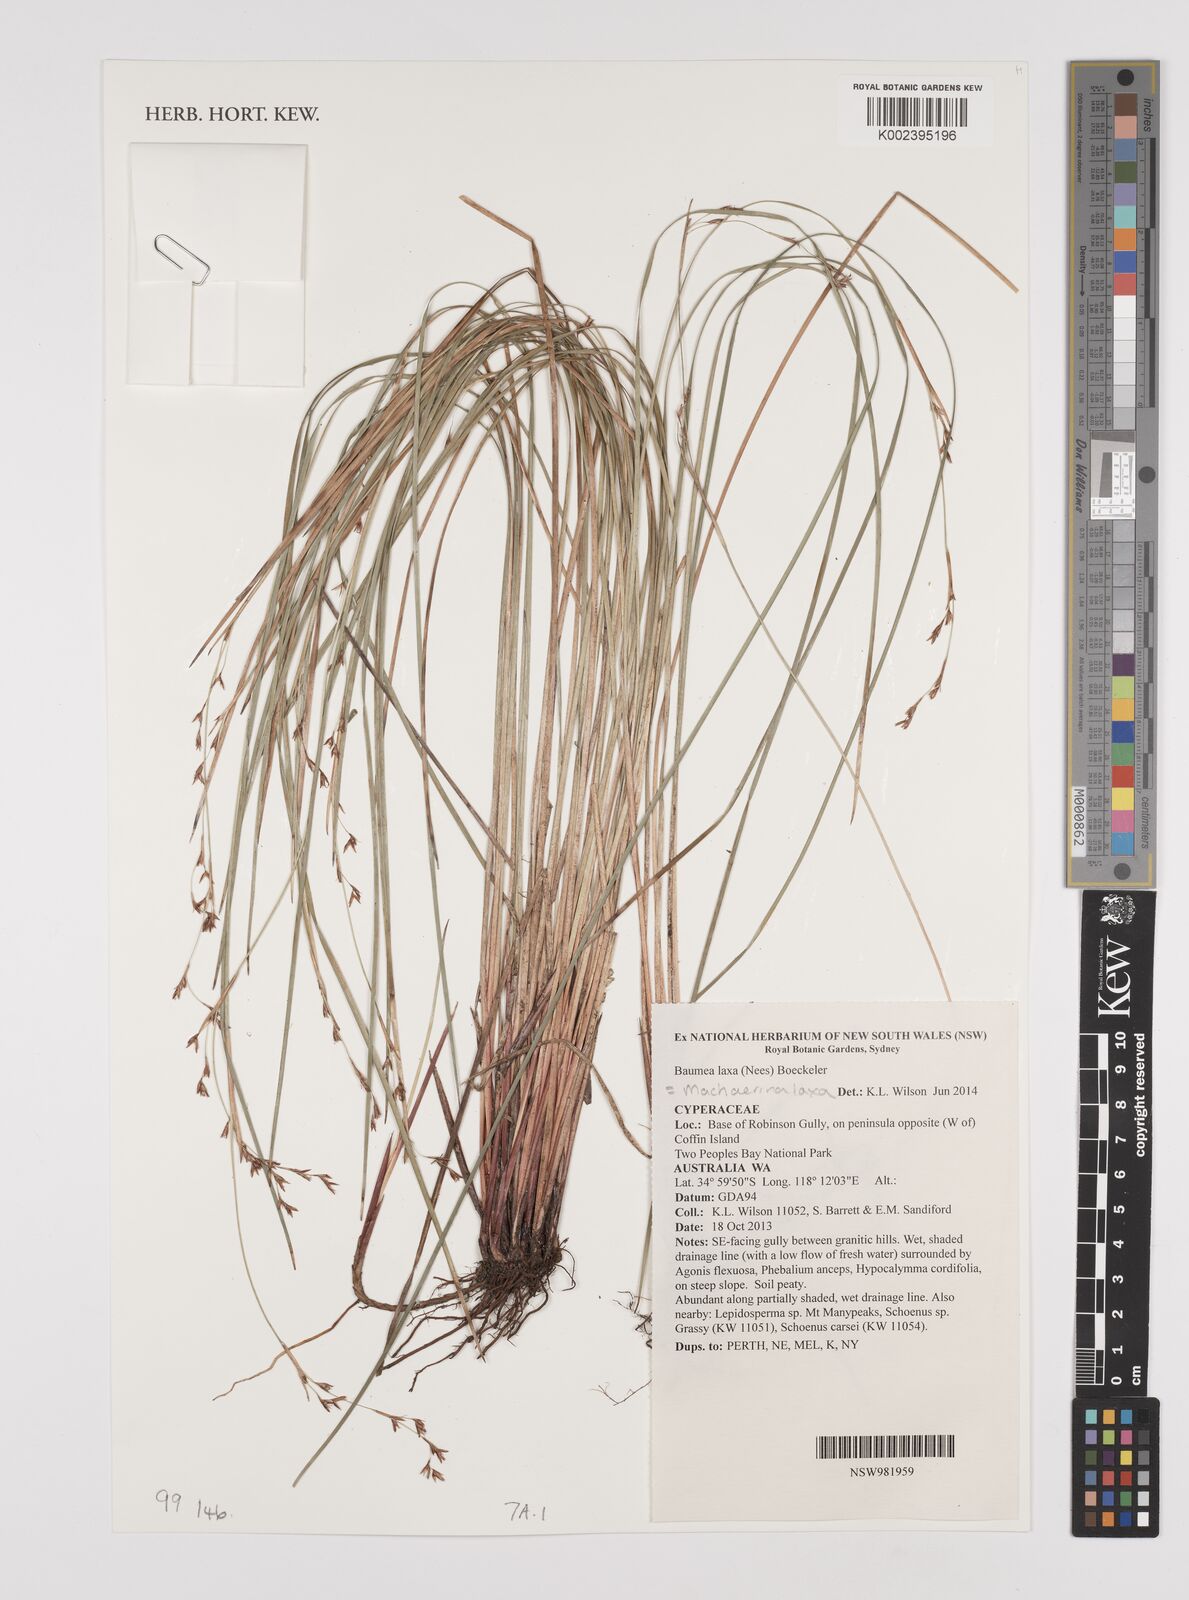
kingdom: Plantae
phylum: Tracheophyta
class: Liliopsida
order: Poales
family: Cyperaceae
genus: Machaerina
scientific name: Machaerina laxa
